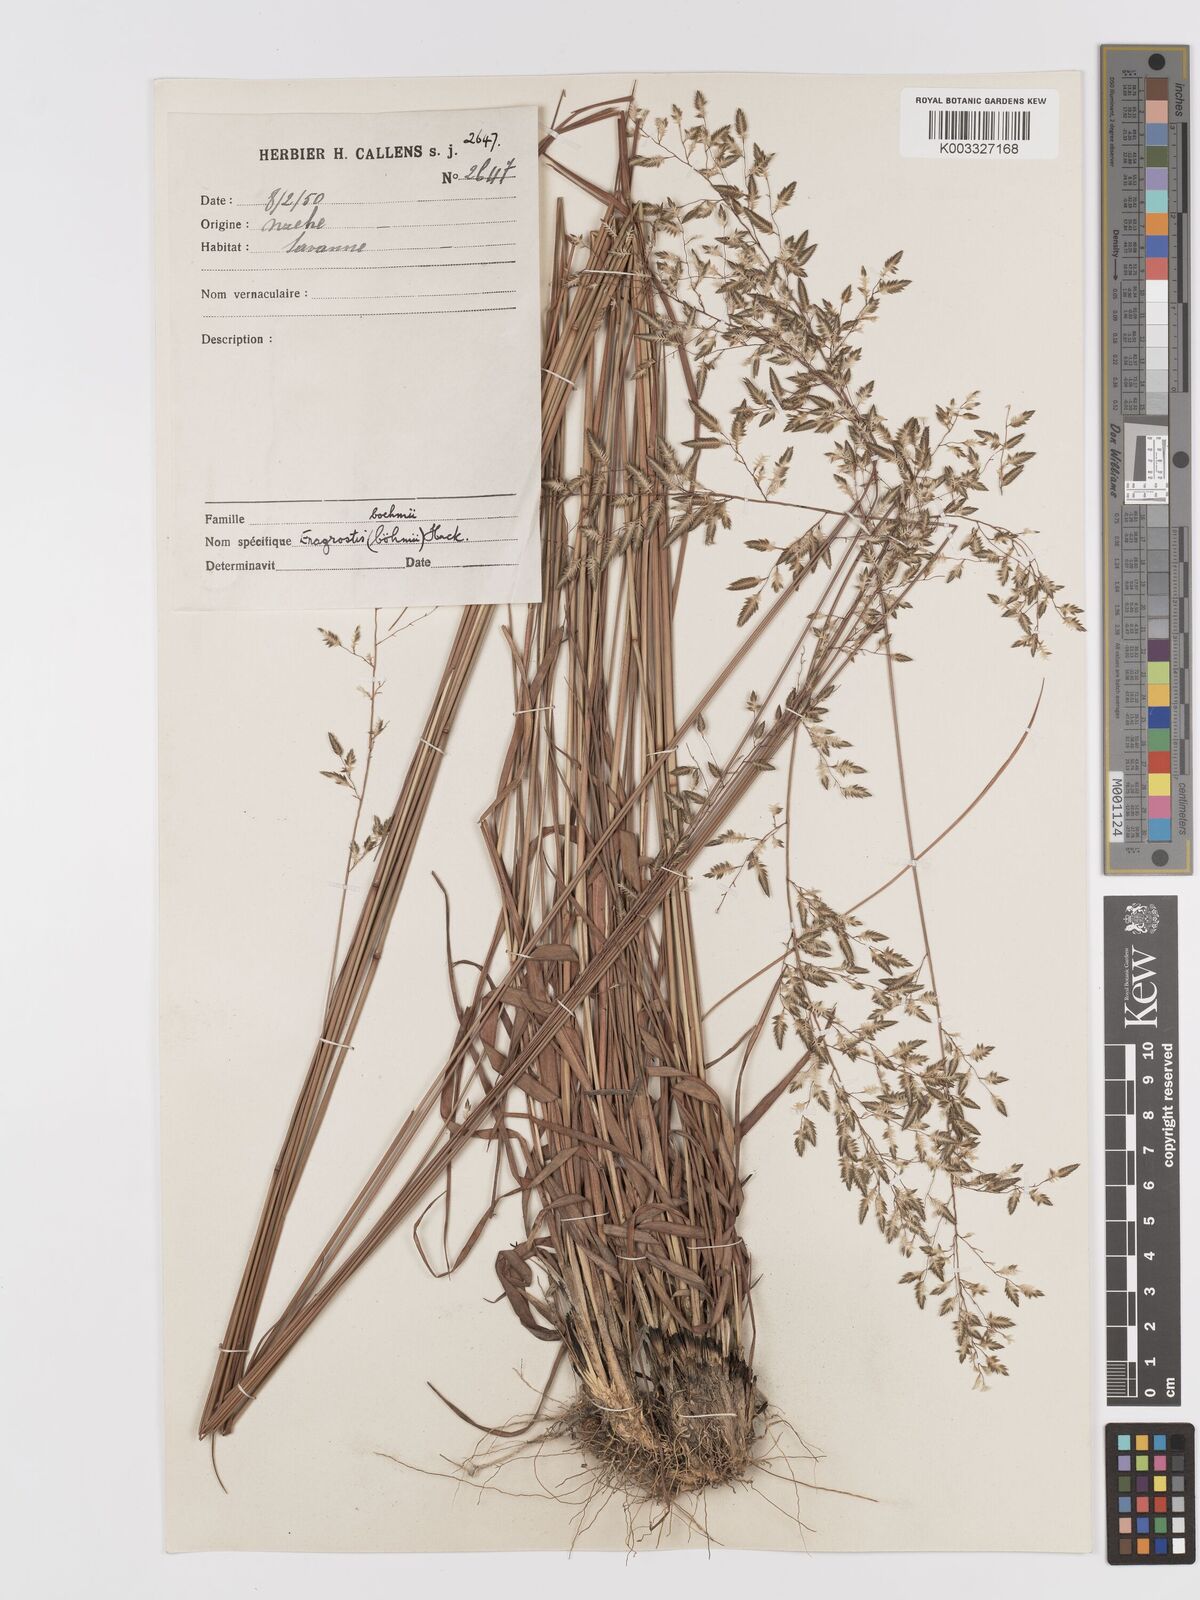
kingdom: Plantae
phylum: Tracheophyta
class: Liliopsida
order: Poales
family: Poaceae
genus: Eragrostis
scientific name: Eragrostis racemosa
